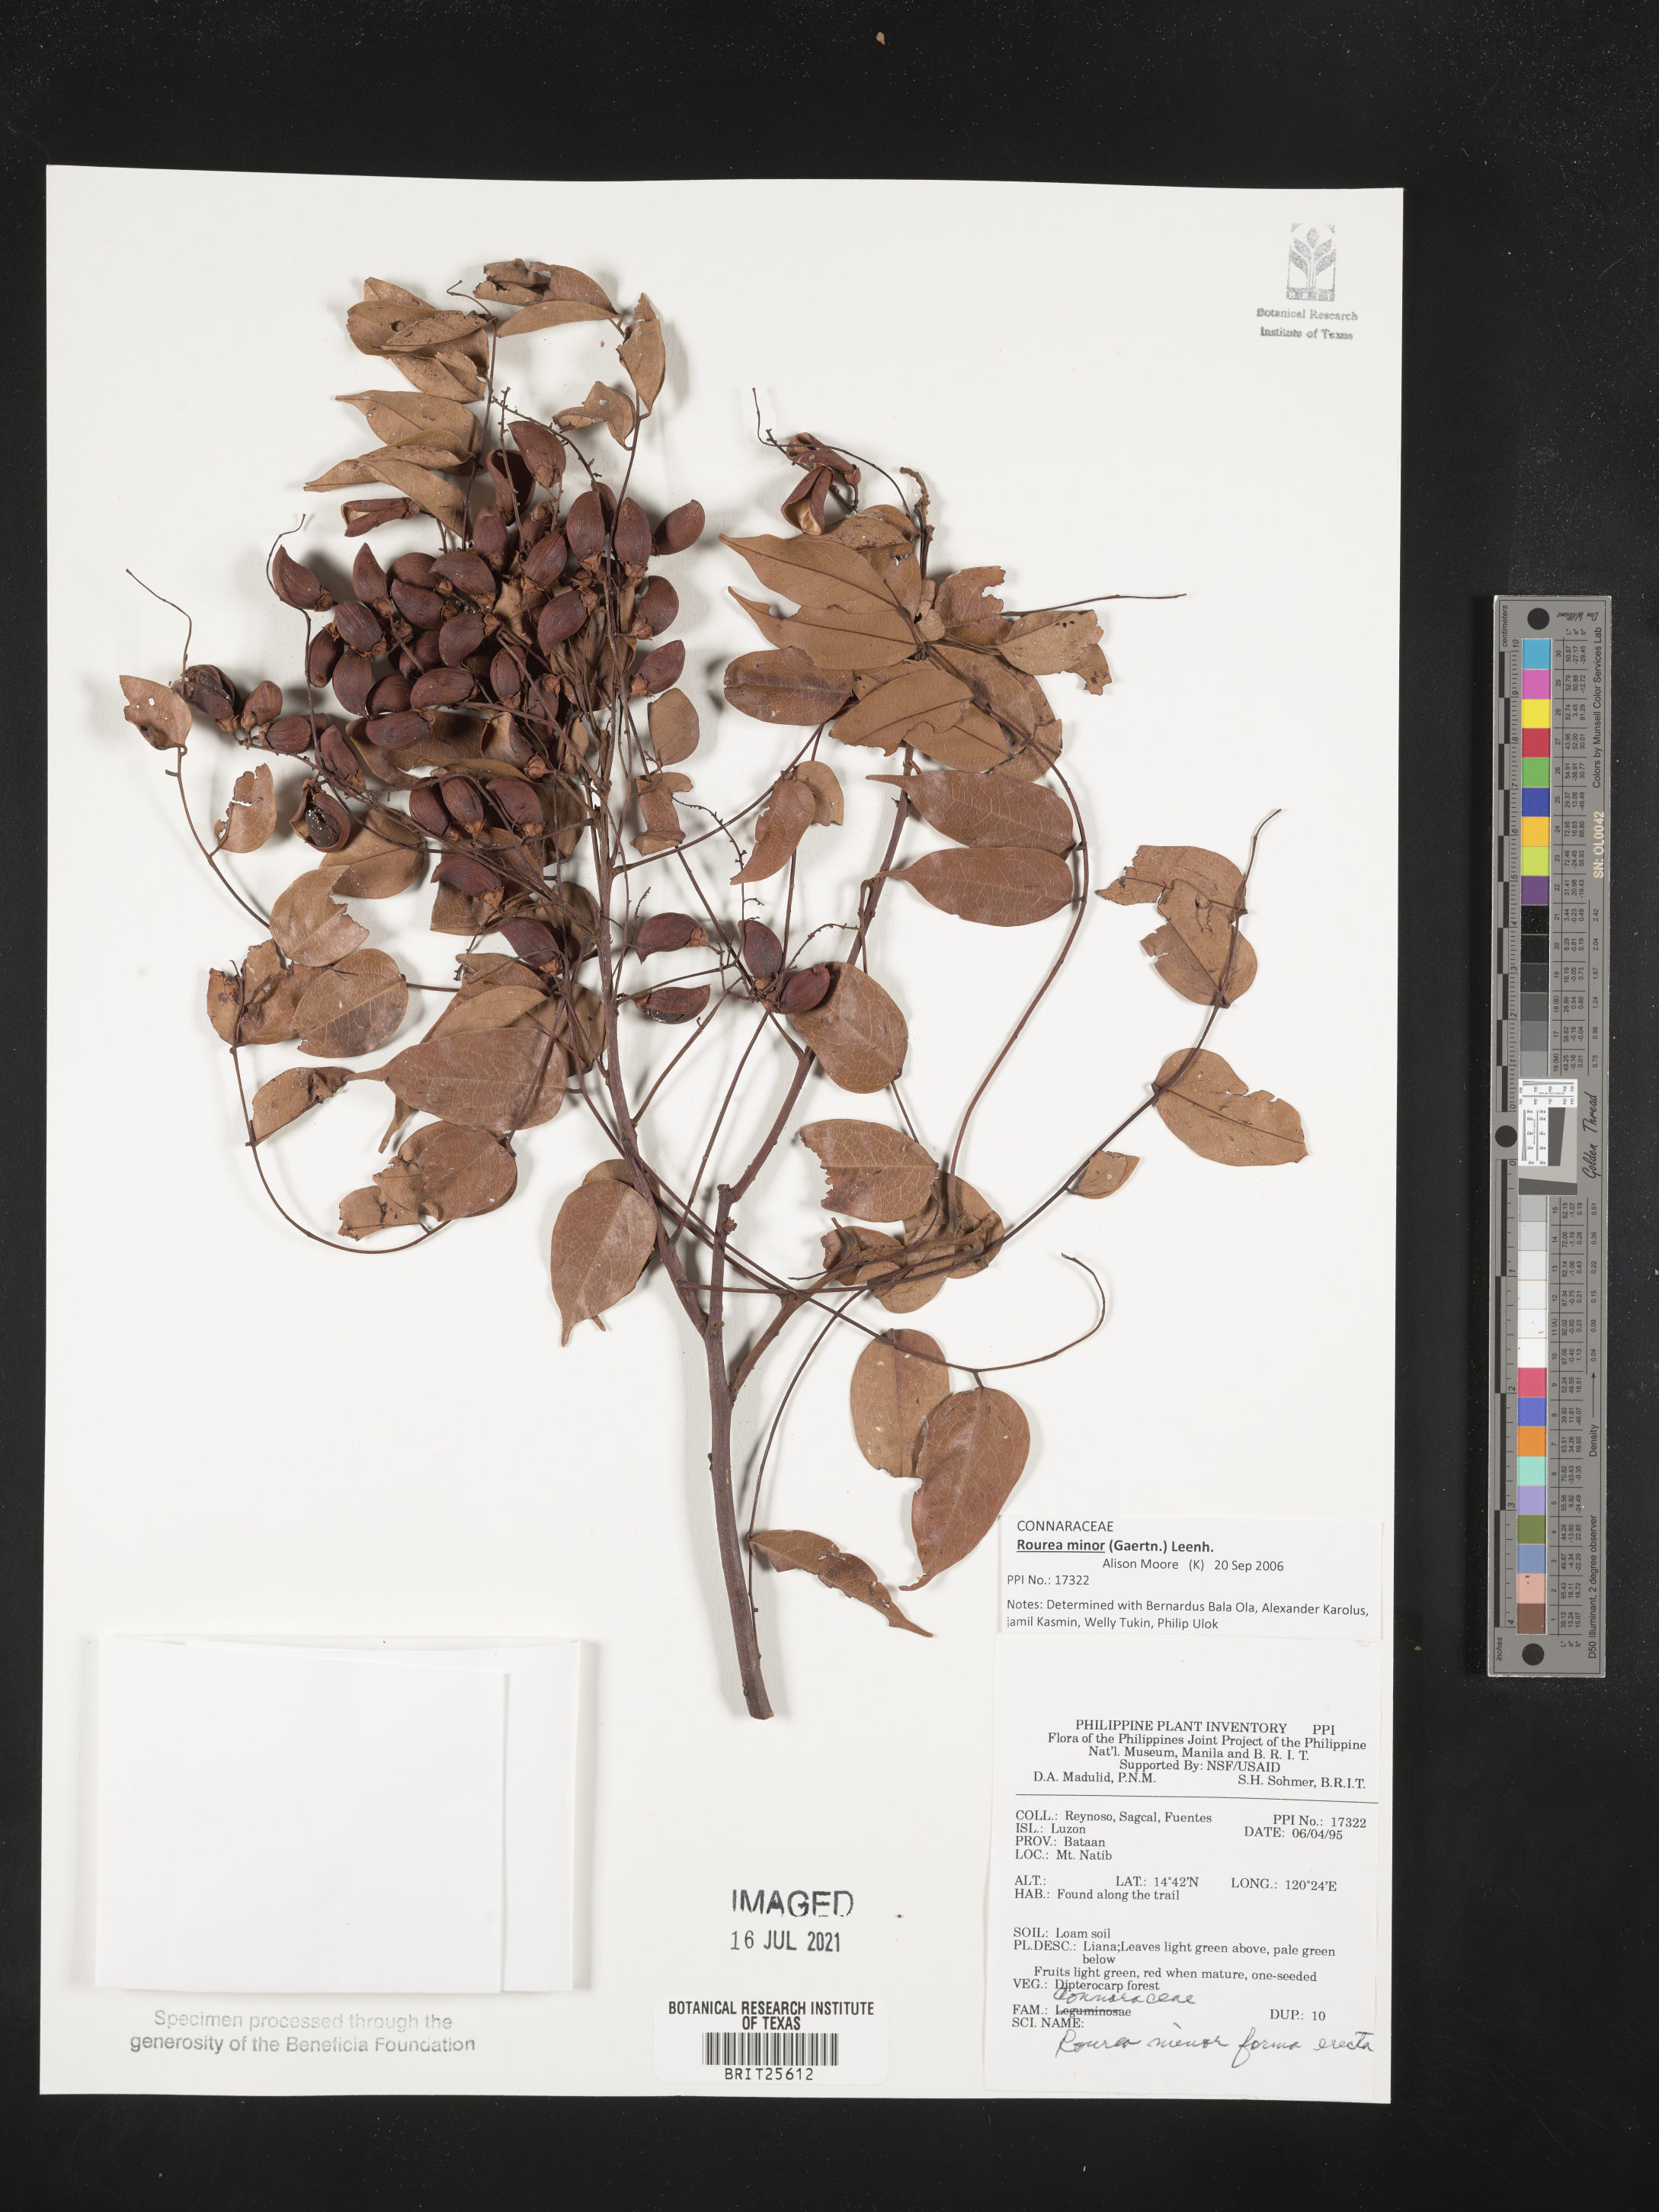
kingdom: Plantae
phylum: Tracheophyta
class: Magnoliopsida
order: Oxalidales
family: Connaraceae
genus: Rourea
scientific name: Rourea minor
